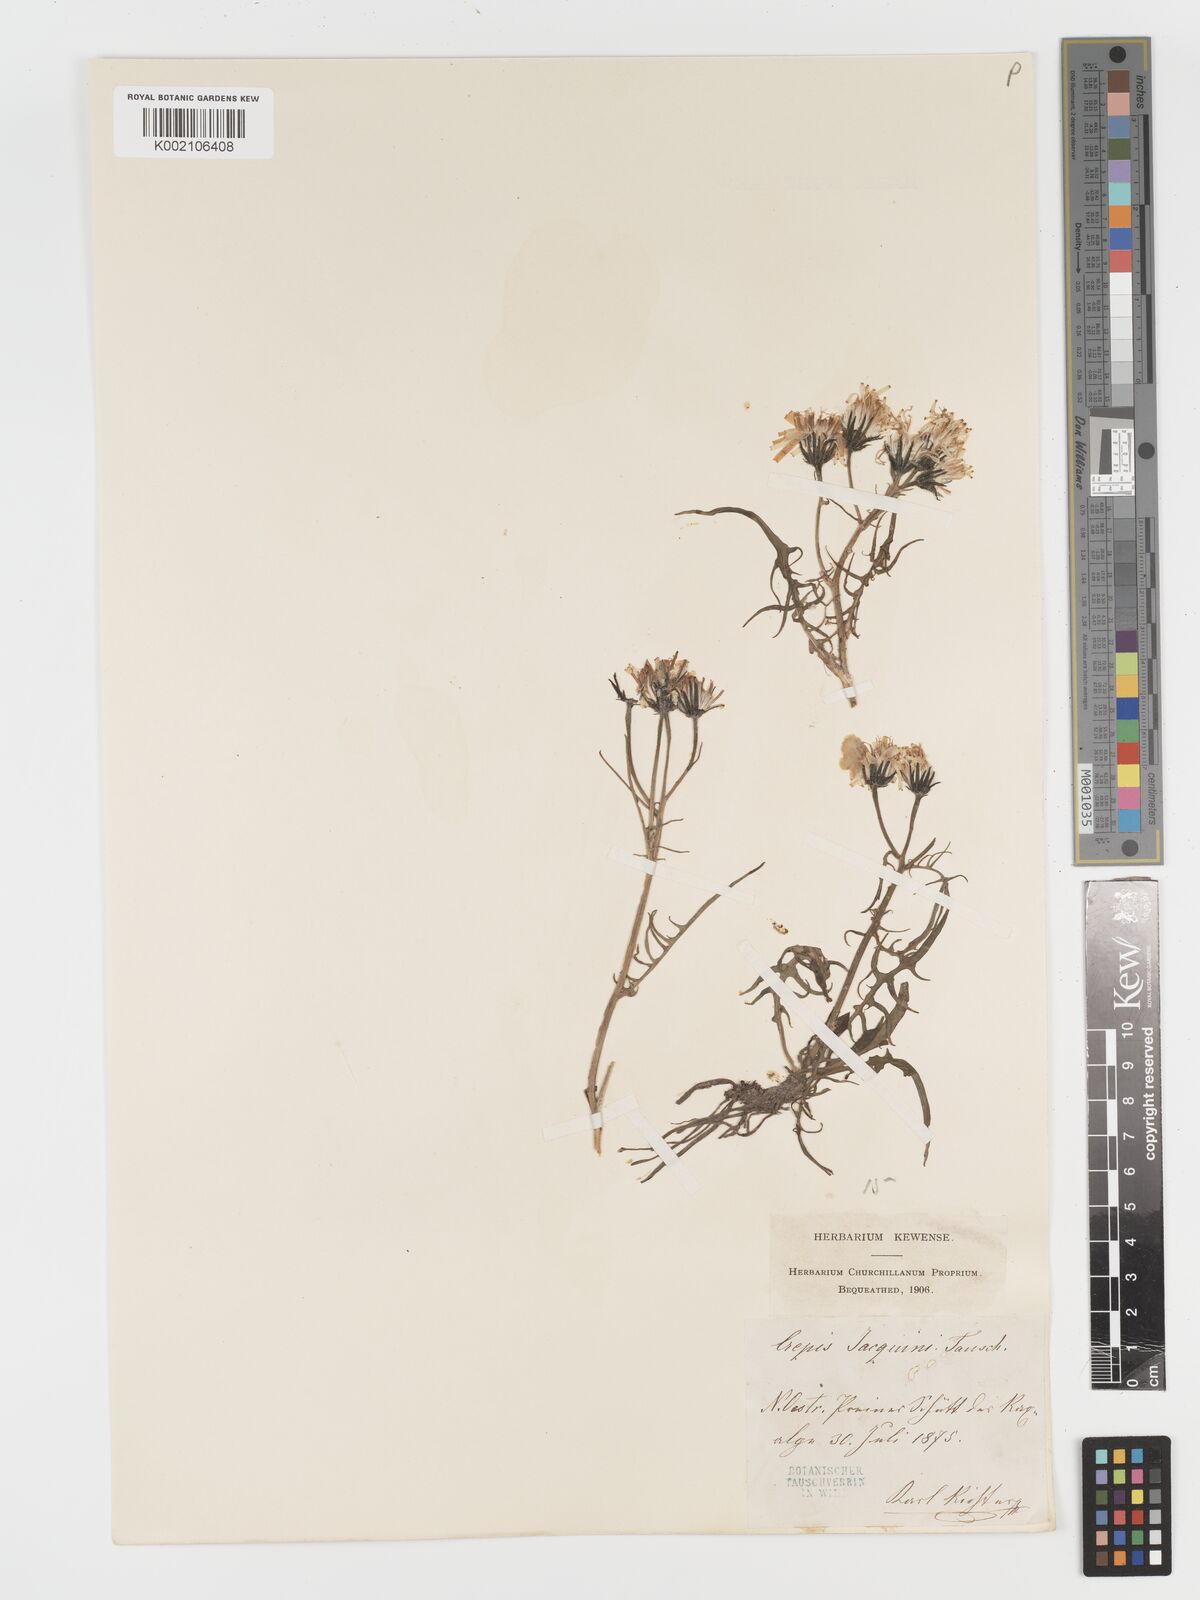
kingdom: Plantae
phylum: Tracheophyta
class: Magnoliopsida
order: Asterales
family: Asteraceae
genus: Crepis
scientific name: Crepis jacquinii
